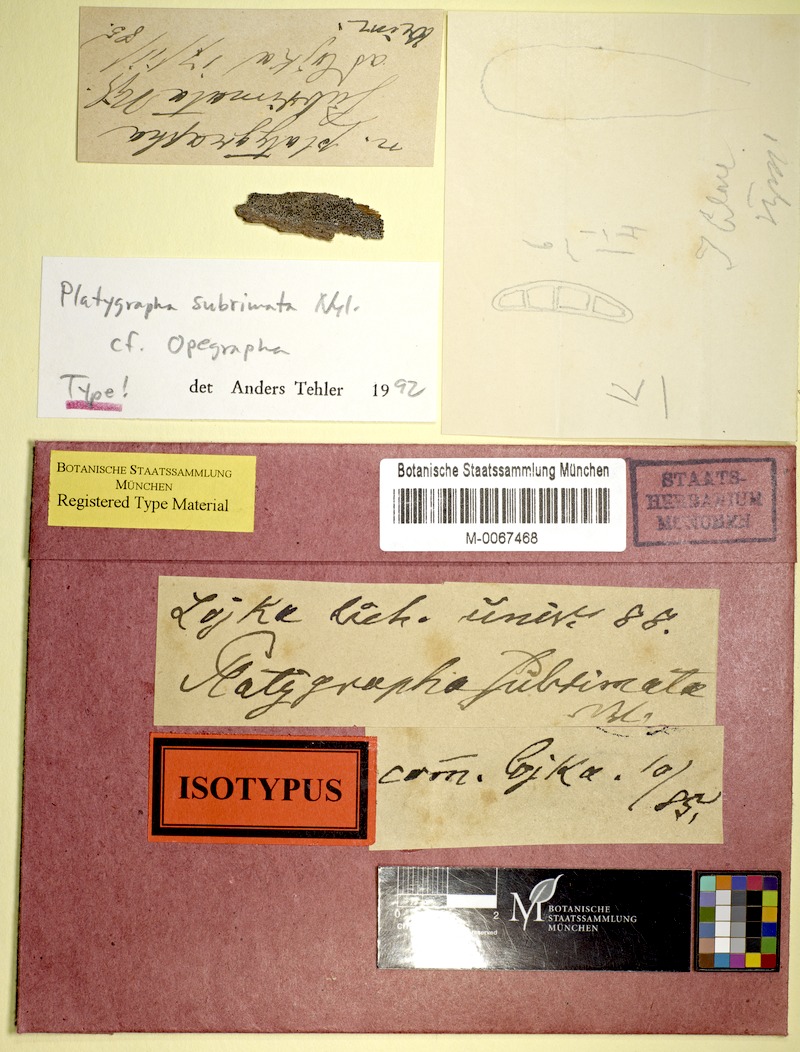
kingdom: Fungi
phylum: Ascomycota
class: Arthoniomycetes
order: Arthoniales
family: Roccellaceae
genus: Schismatomma
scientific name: Schismatomma
